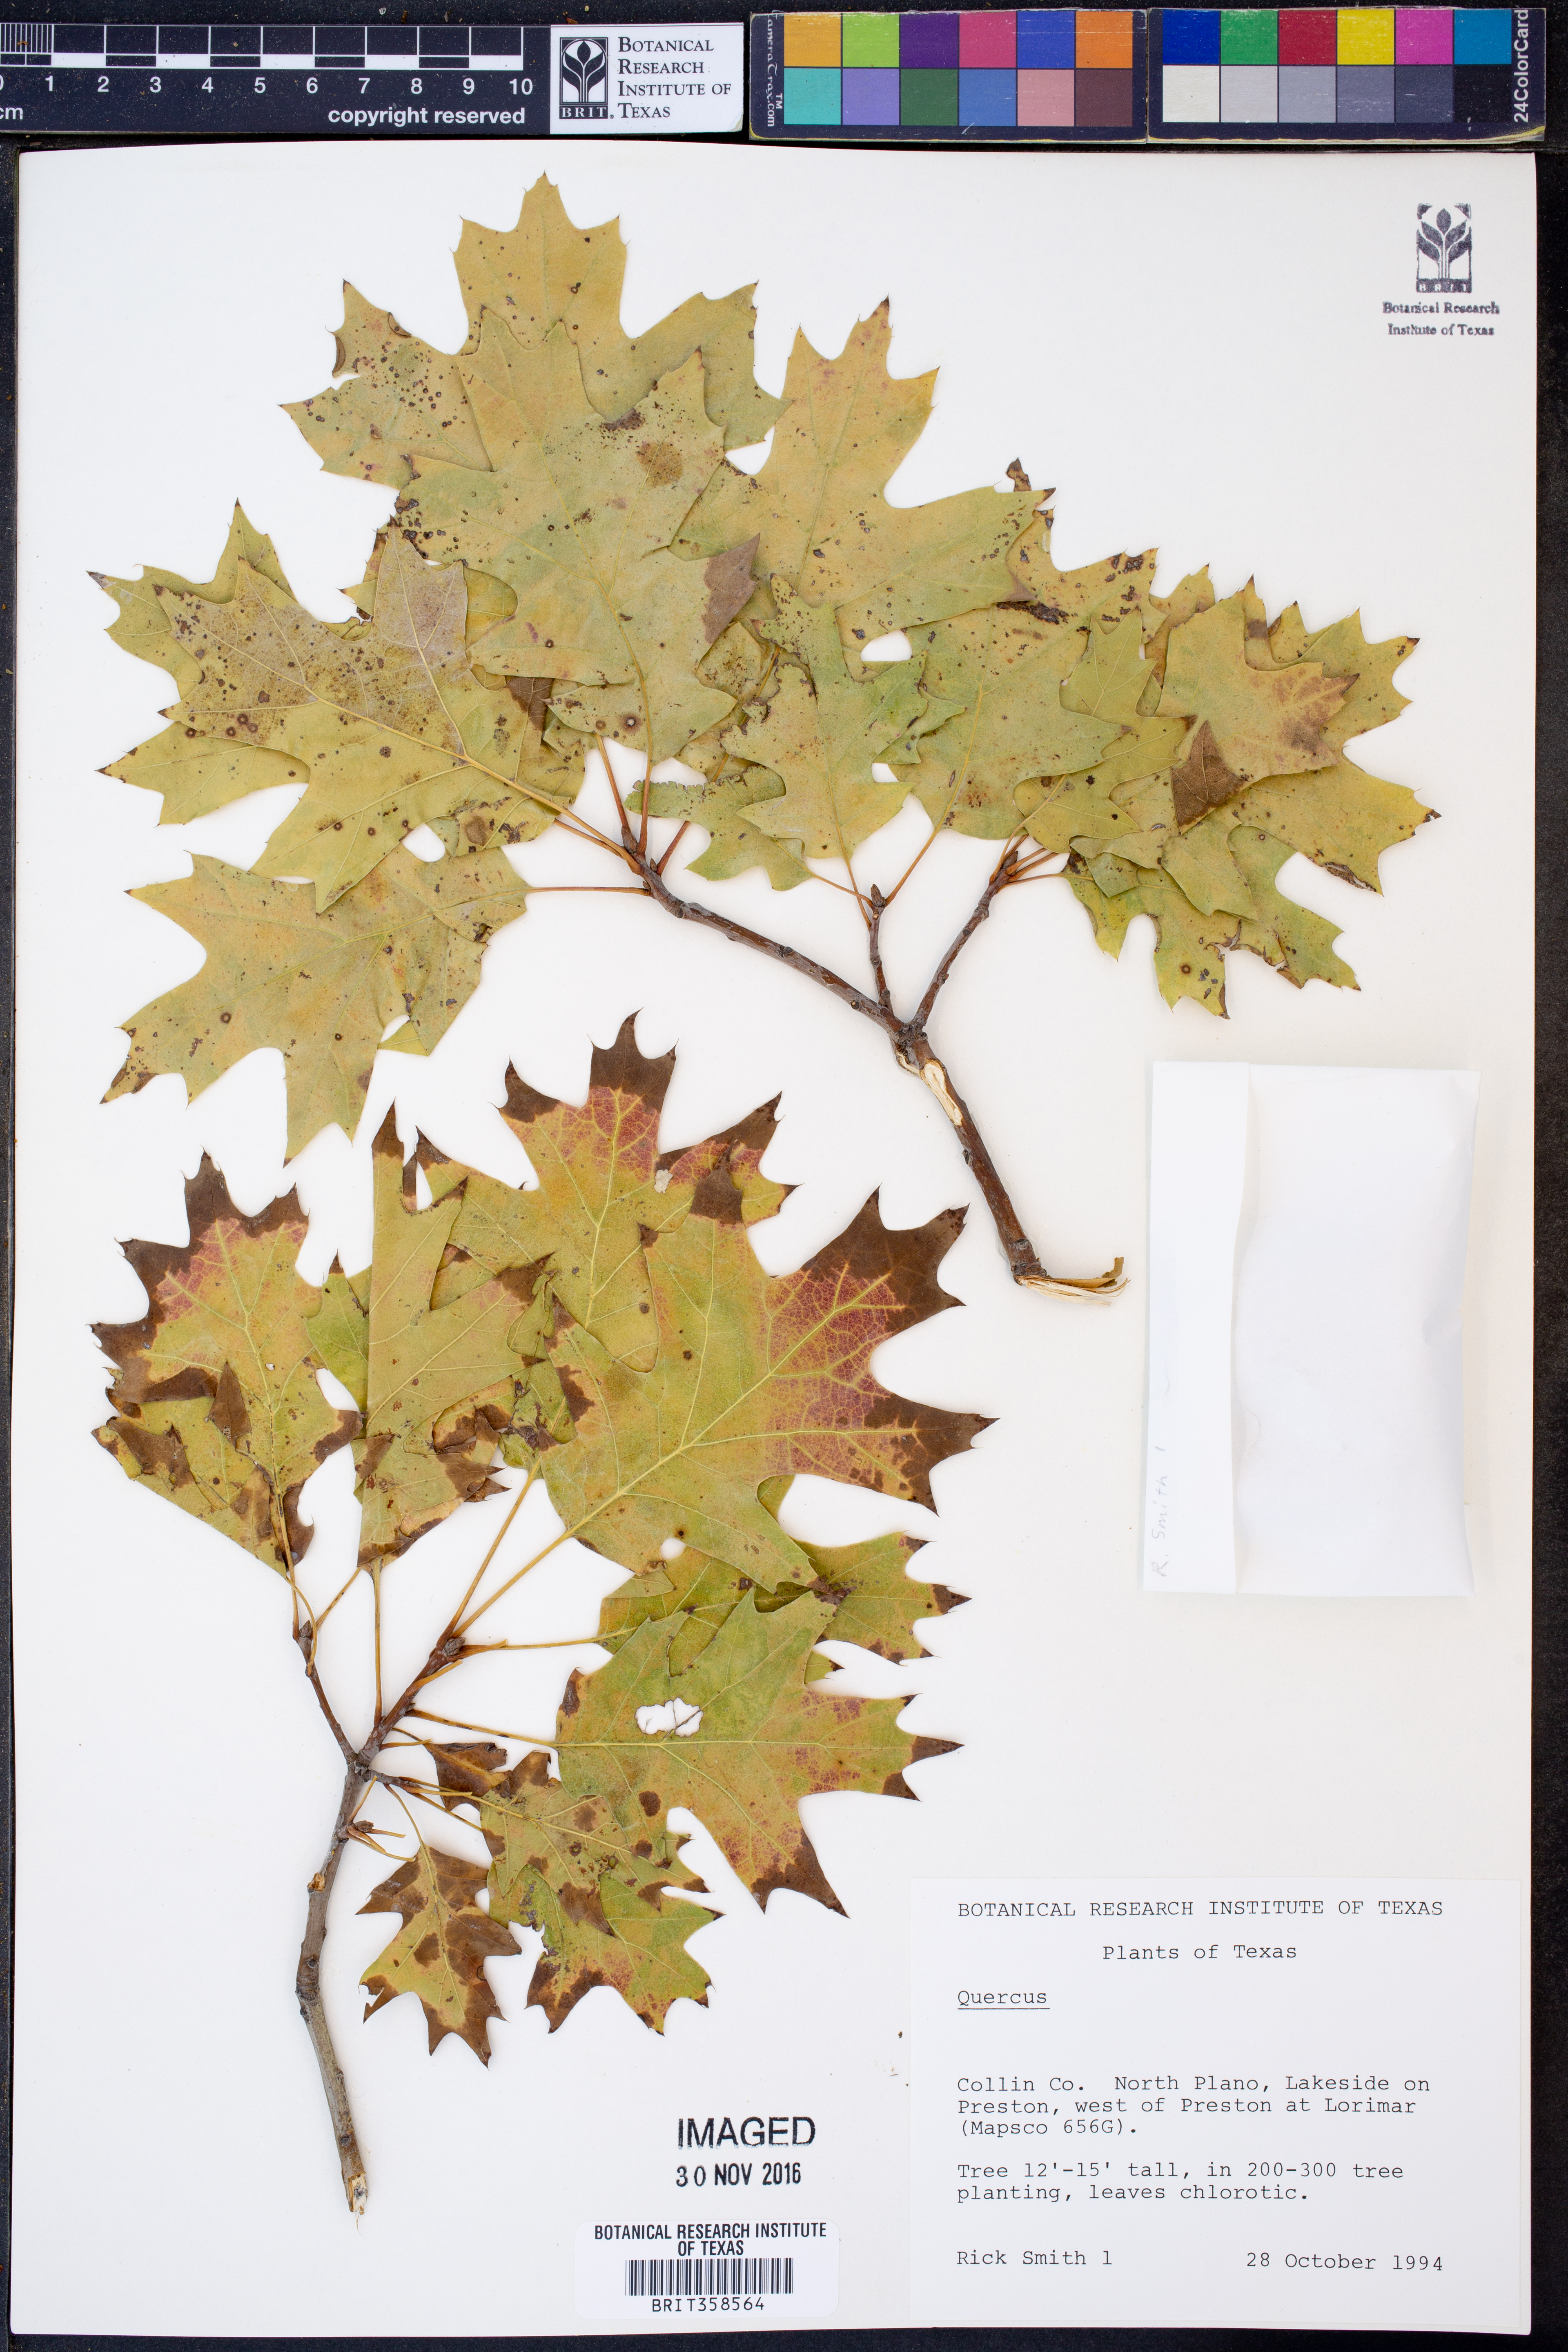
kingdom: Plantae
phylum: Tracheophyta
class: Magnoliopsida
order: Fagales
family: Fagaceae
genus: Quercus
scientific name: Quercus
